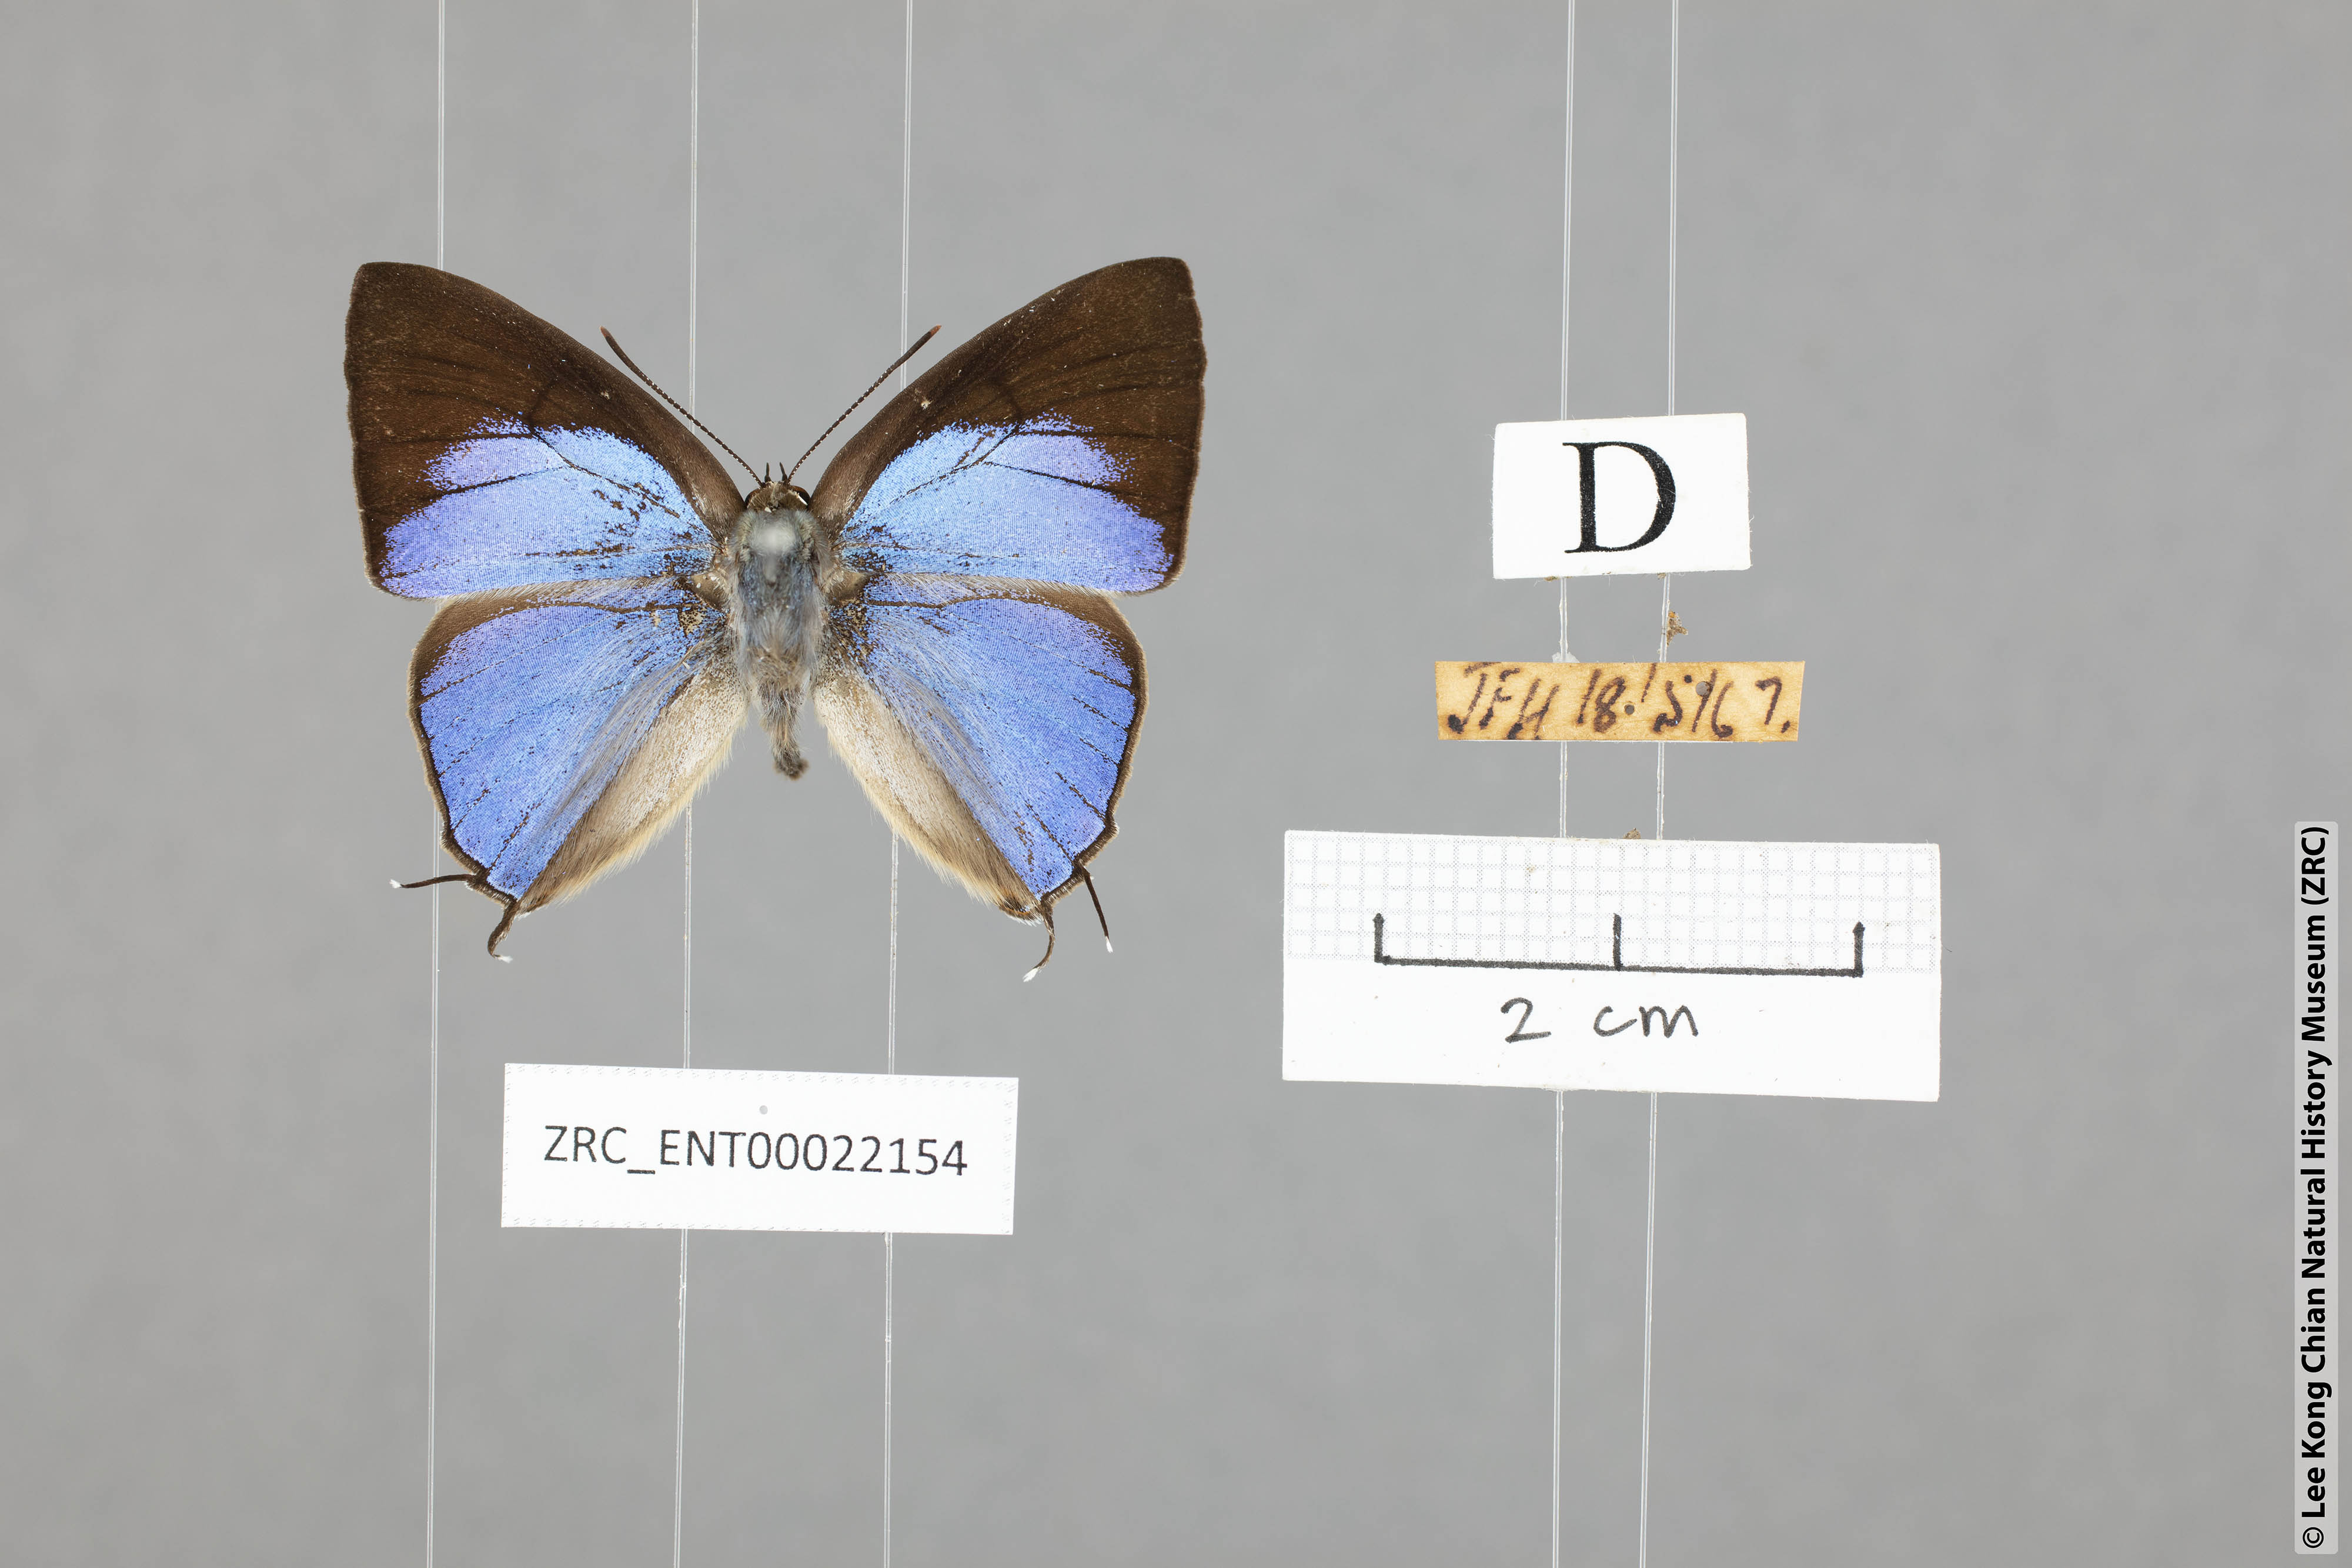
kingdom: Animalia
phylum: Arthropoda
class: Insecta
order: Lepidoptera
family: Lycaenidae
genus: Tajuria
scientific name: Tajuria albiplaga
